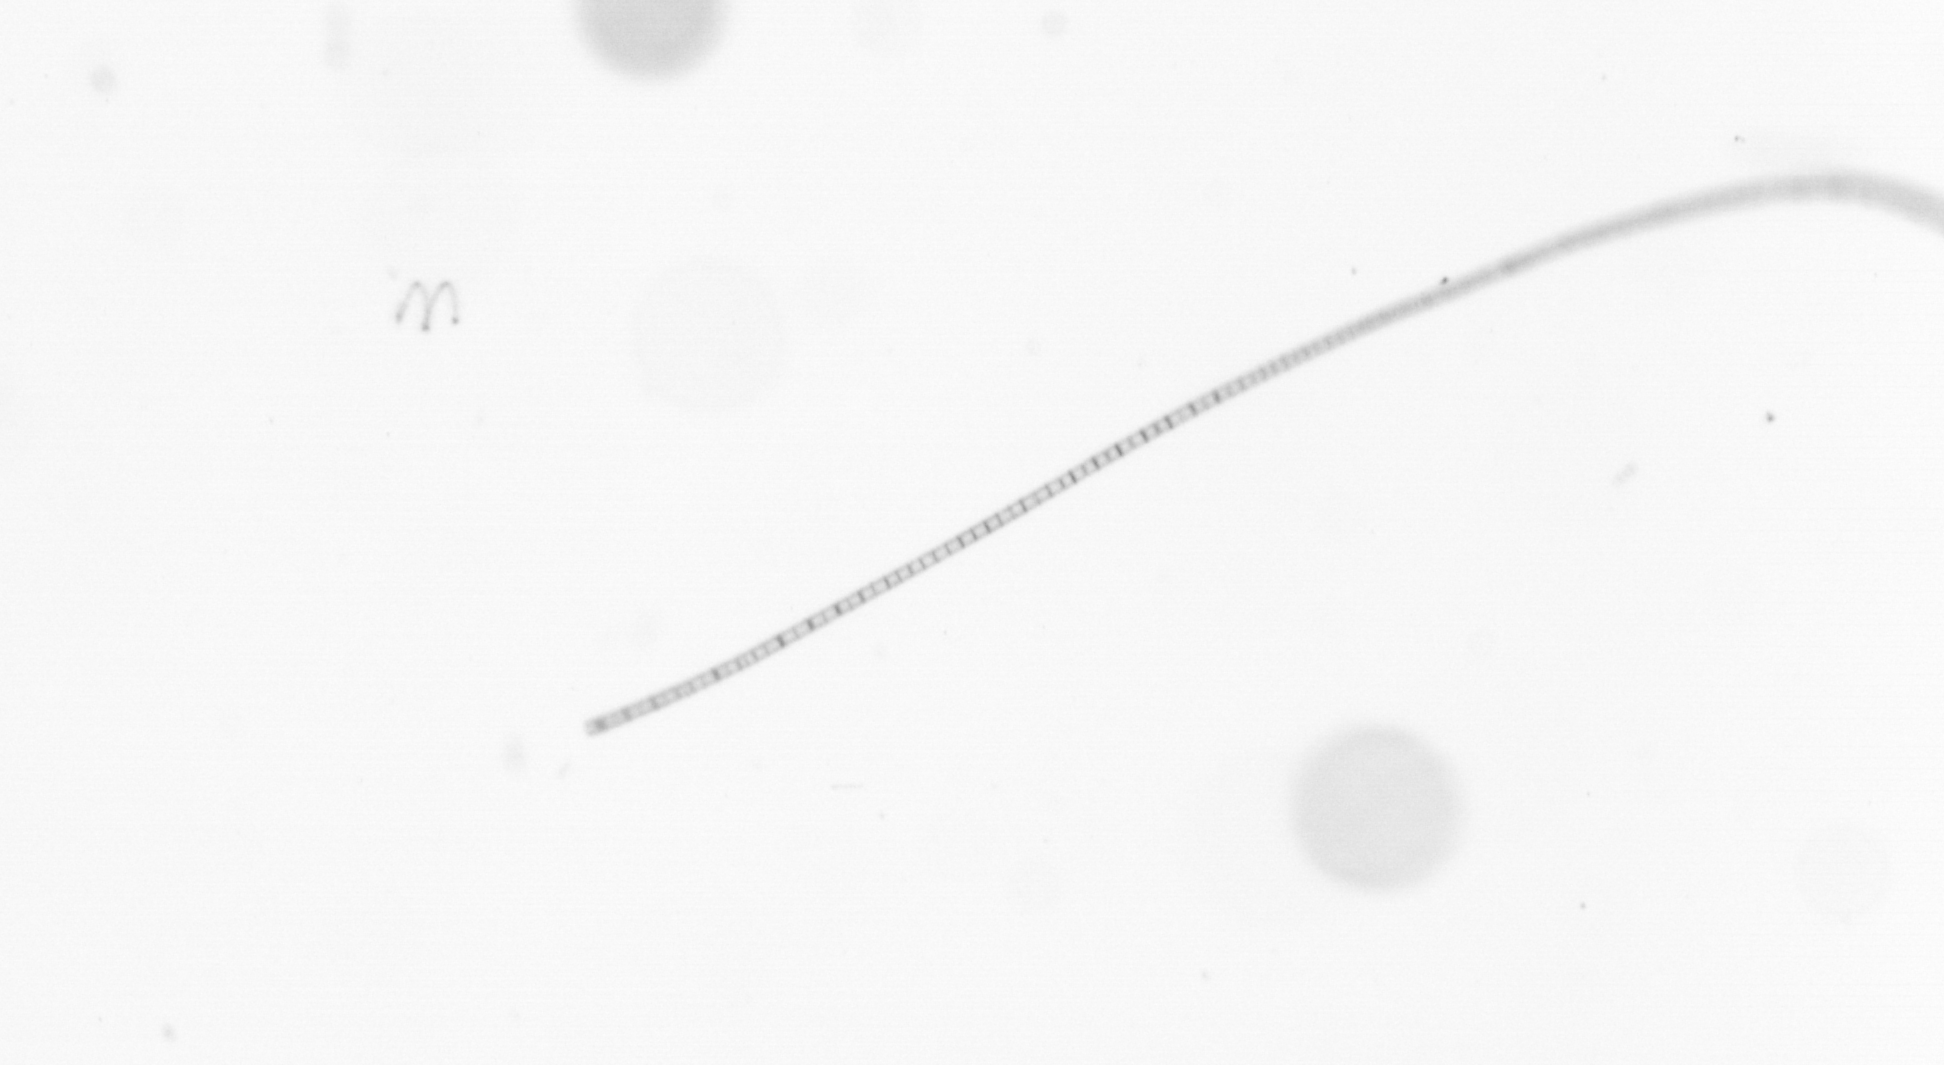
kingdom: Chromista
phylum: Ochrophyta
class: Bacillariophyceae
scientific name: Bacillariophyceae
